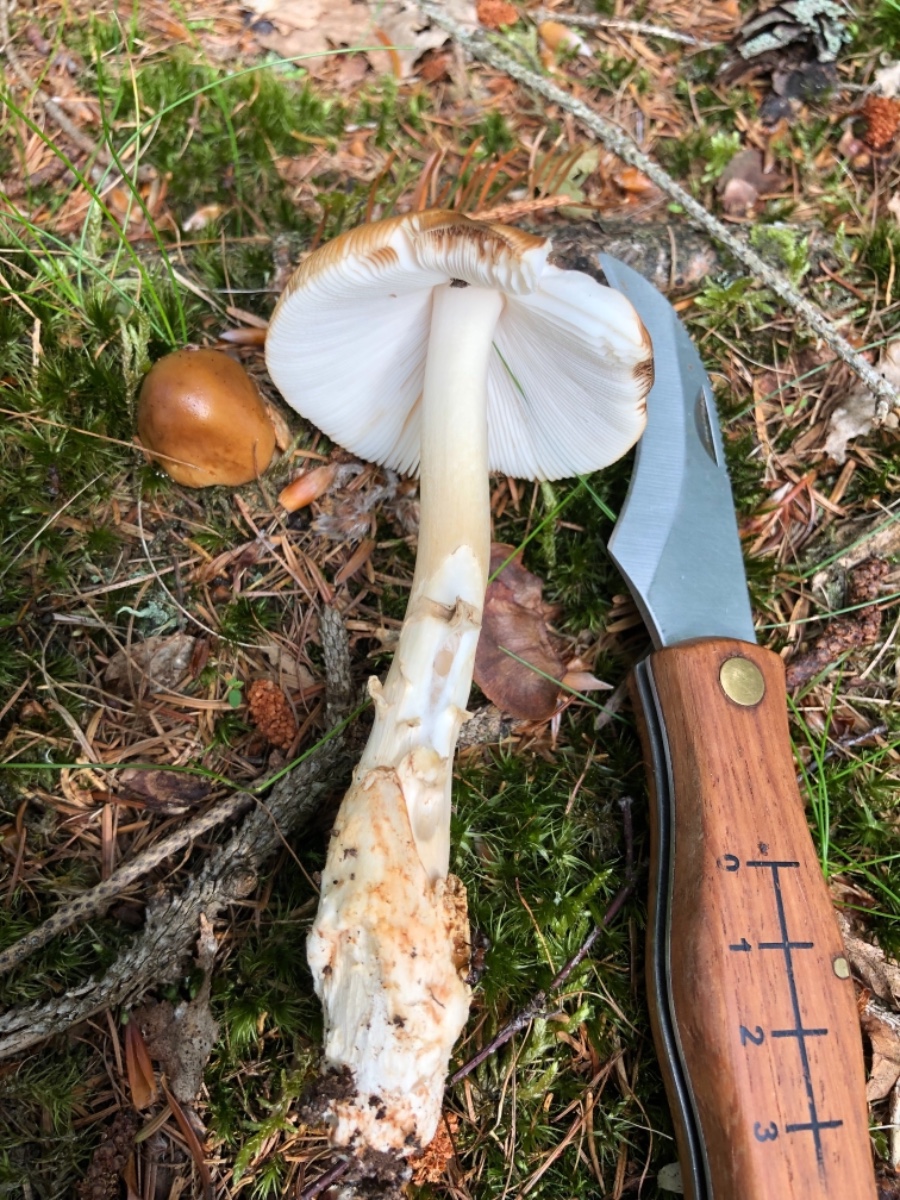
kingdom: Fungi
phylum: Basidiomycota
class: Agaricomycetes
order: Agaricales
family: Amanitaceae
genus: Amanita
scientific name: Amanita fulva
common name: brun kam-fluesvamp
